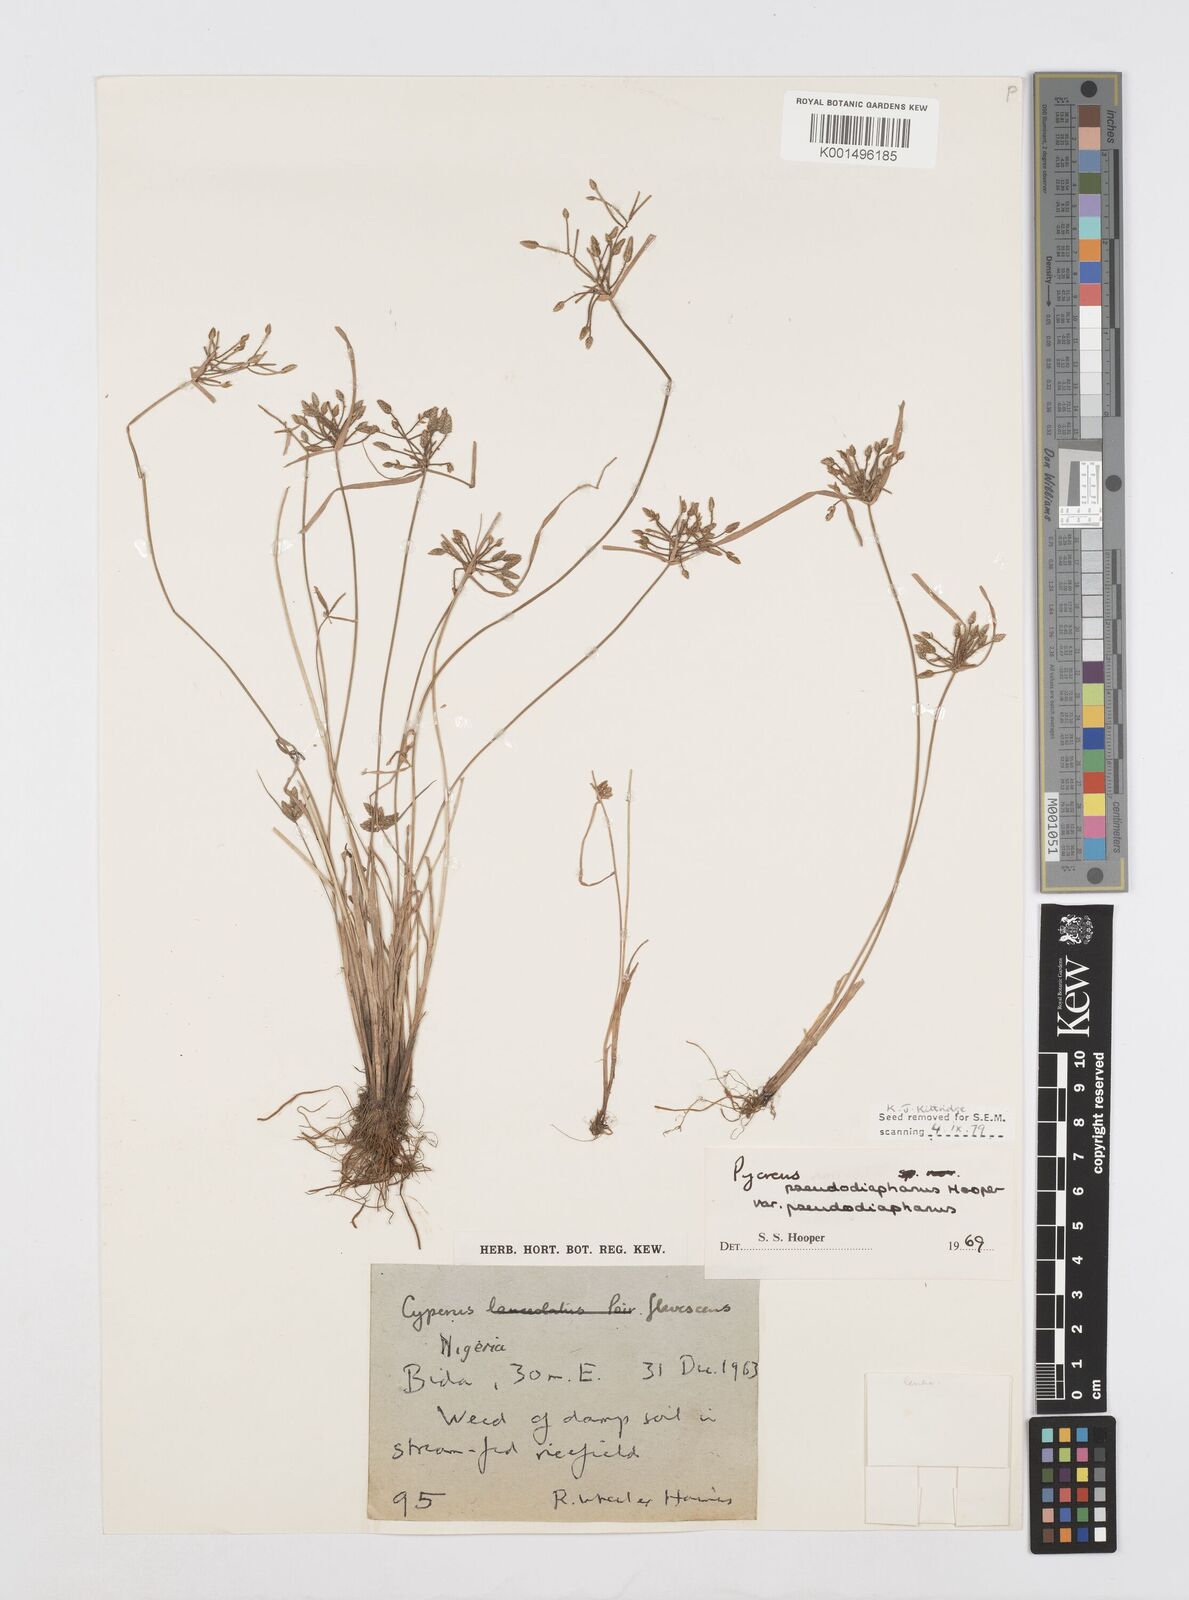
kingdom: Plantae
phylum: Tracheophyta
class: Liliopsida
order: Poales
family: Cyperaceae
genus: Cyperus
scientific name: Cyperus pseudodiaphanus
